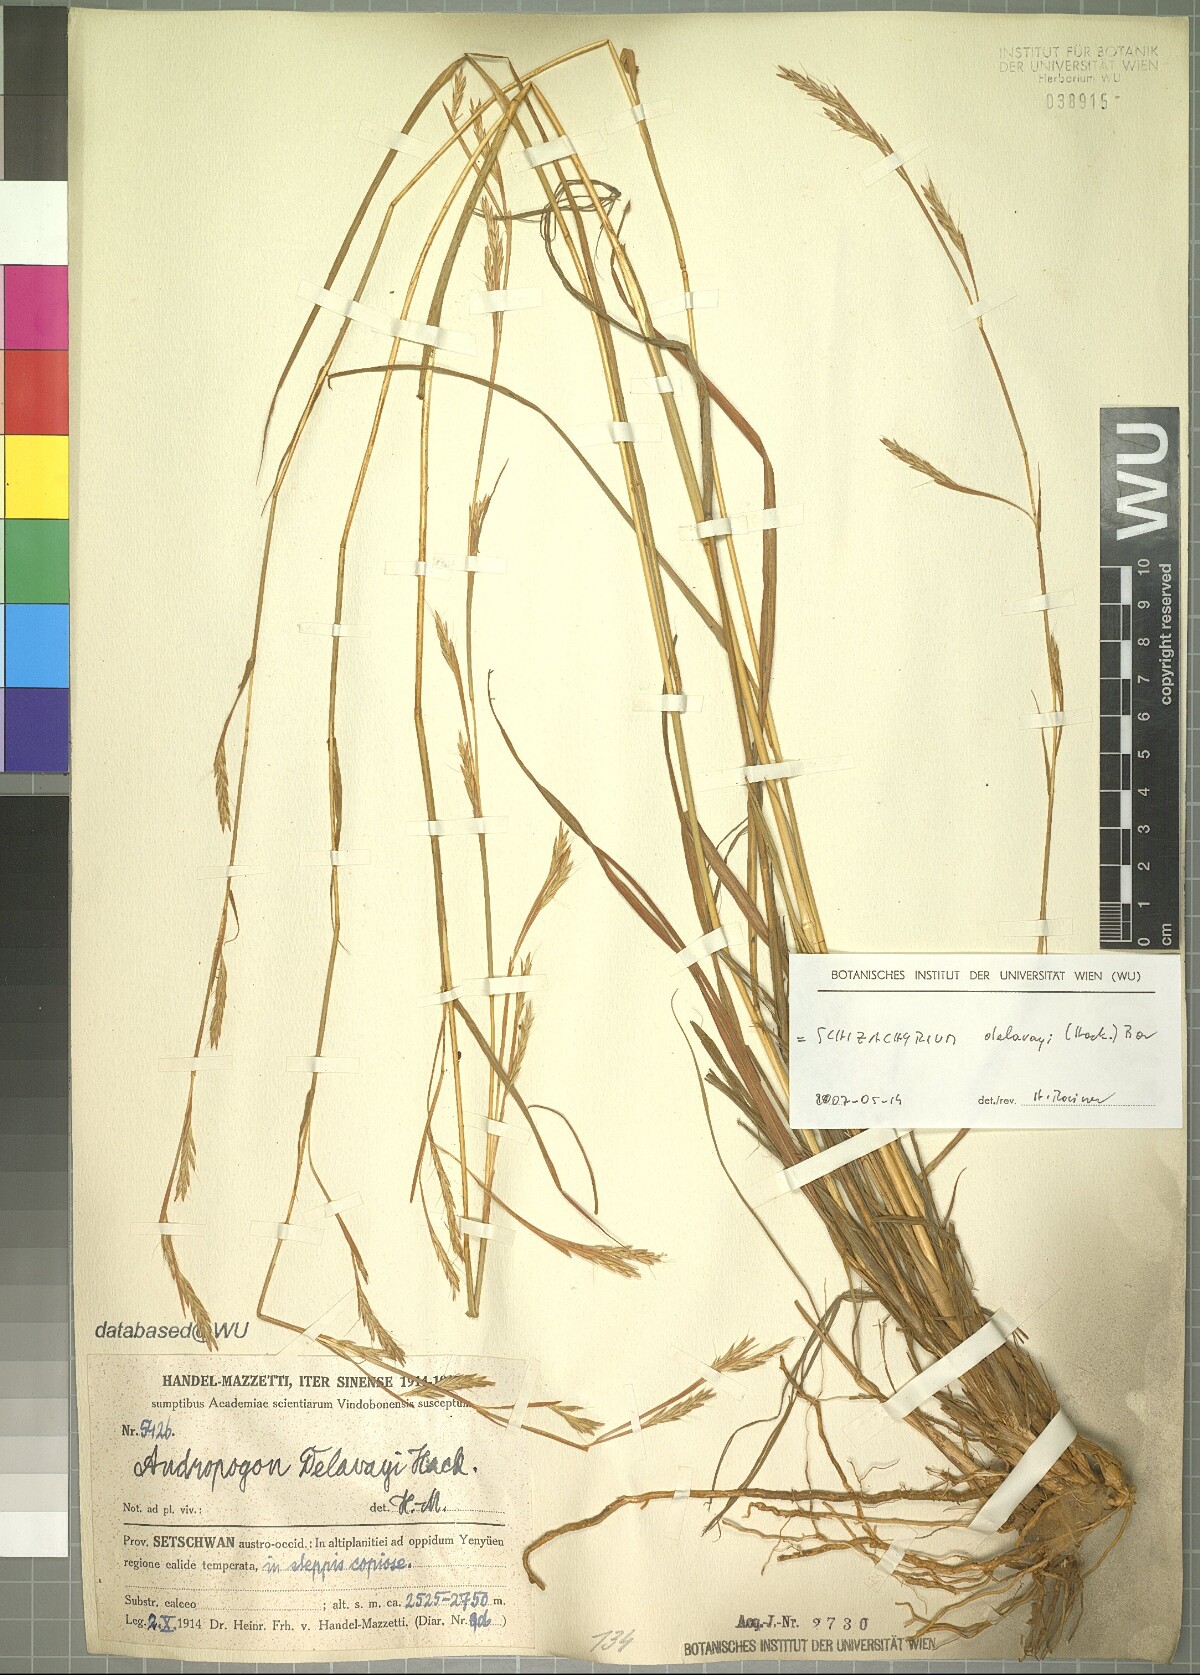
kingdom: Plantae
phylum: Tracheophyta
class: Liliopsida
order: Poales
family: Poaceae
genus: Schizachyrium
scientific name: Schizachyrium delavayi
